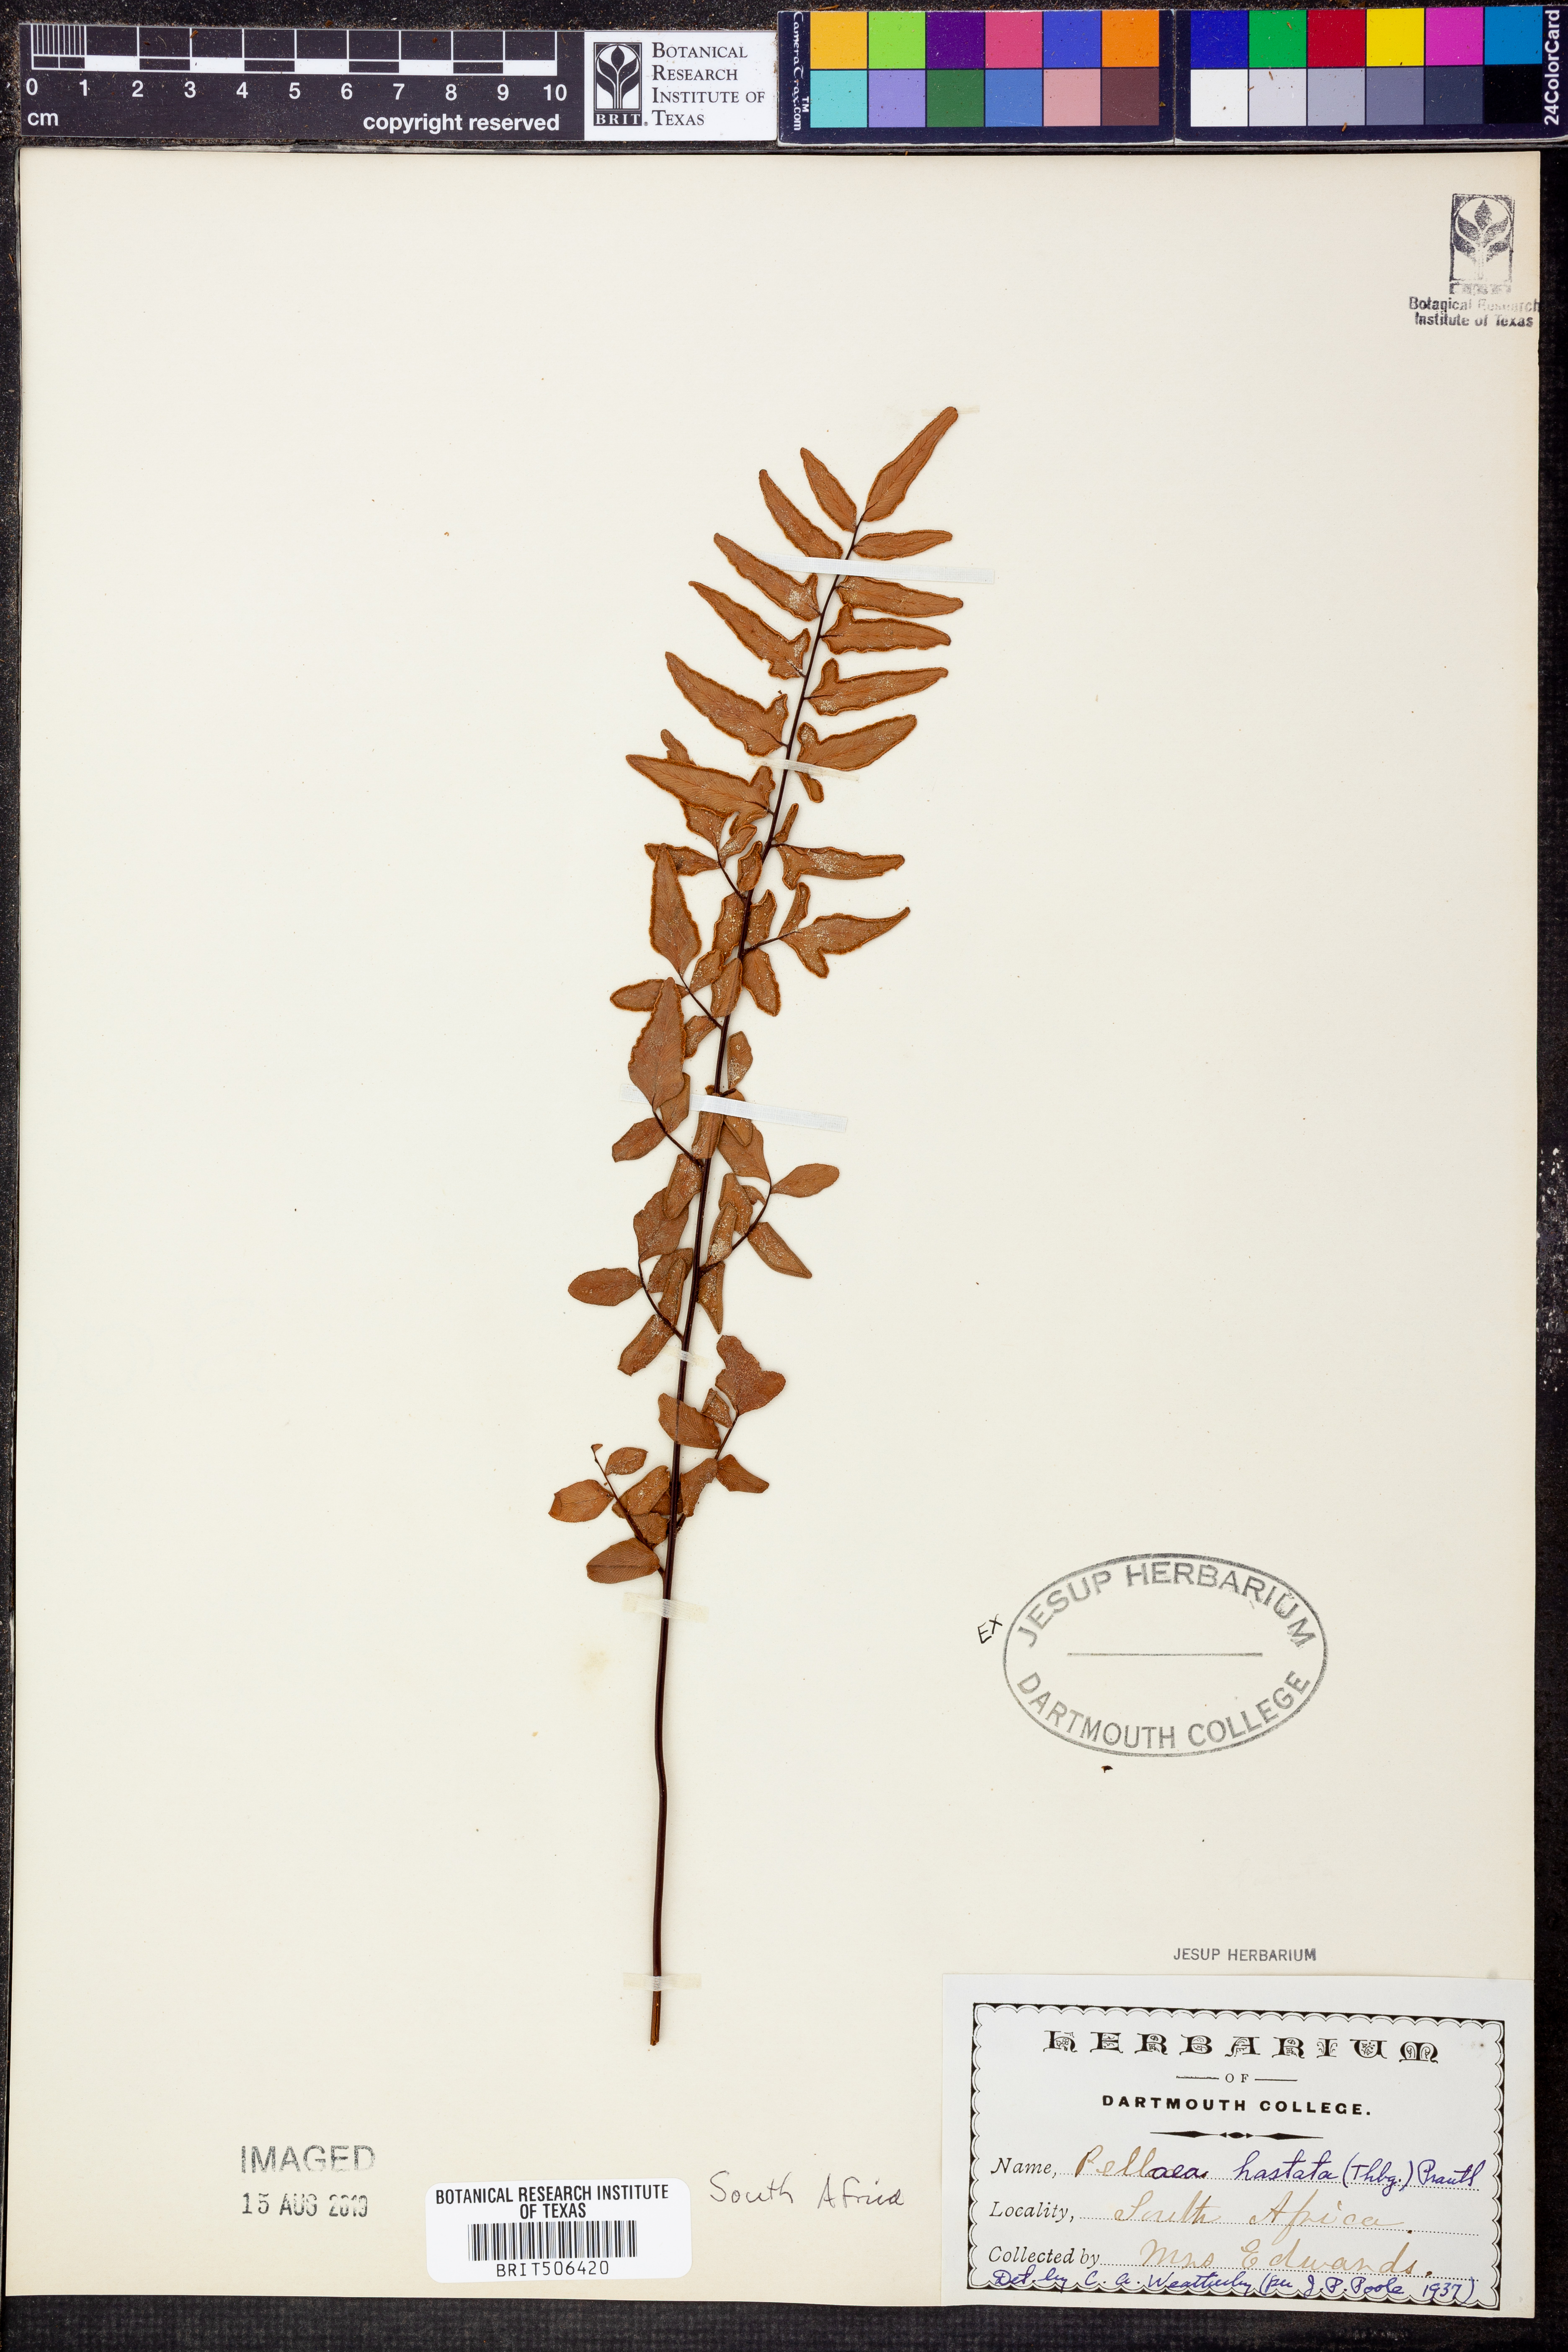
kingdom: Plantae
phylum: Tracheophyta
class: Polypodiopsida
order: Polypodiales
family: Pteridaceae
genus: Cheilanthes
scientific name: Cheilanthes hastata
